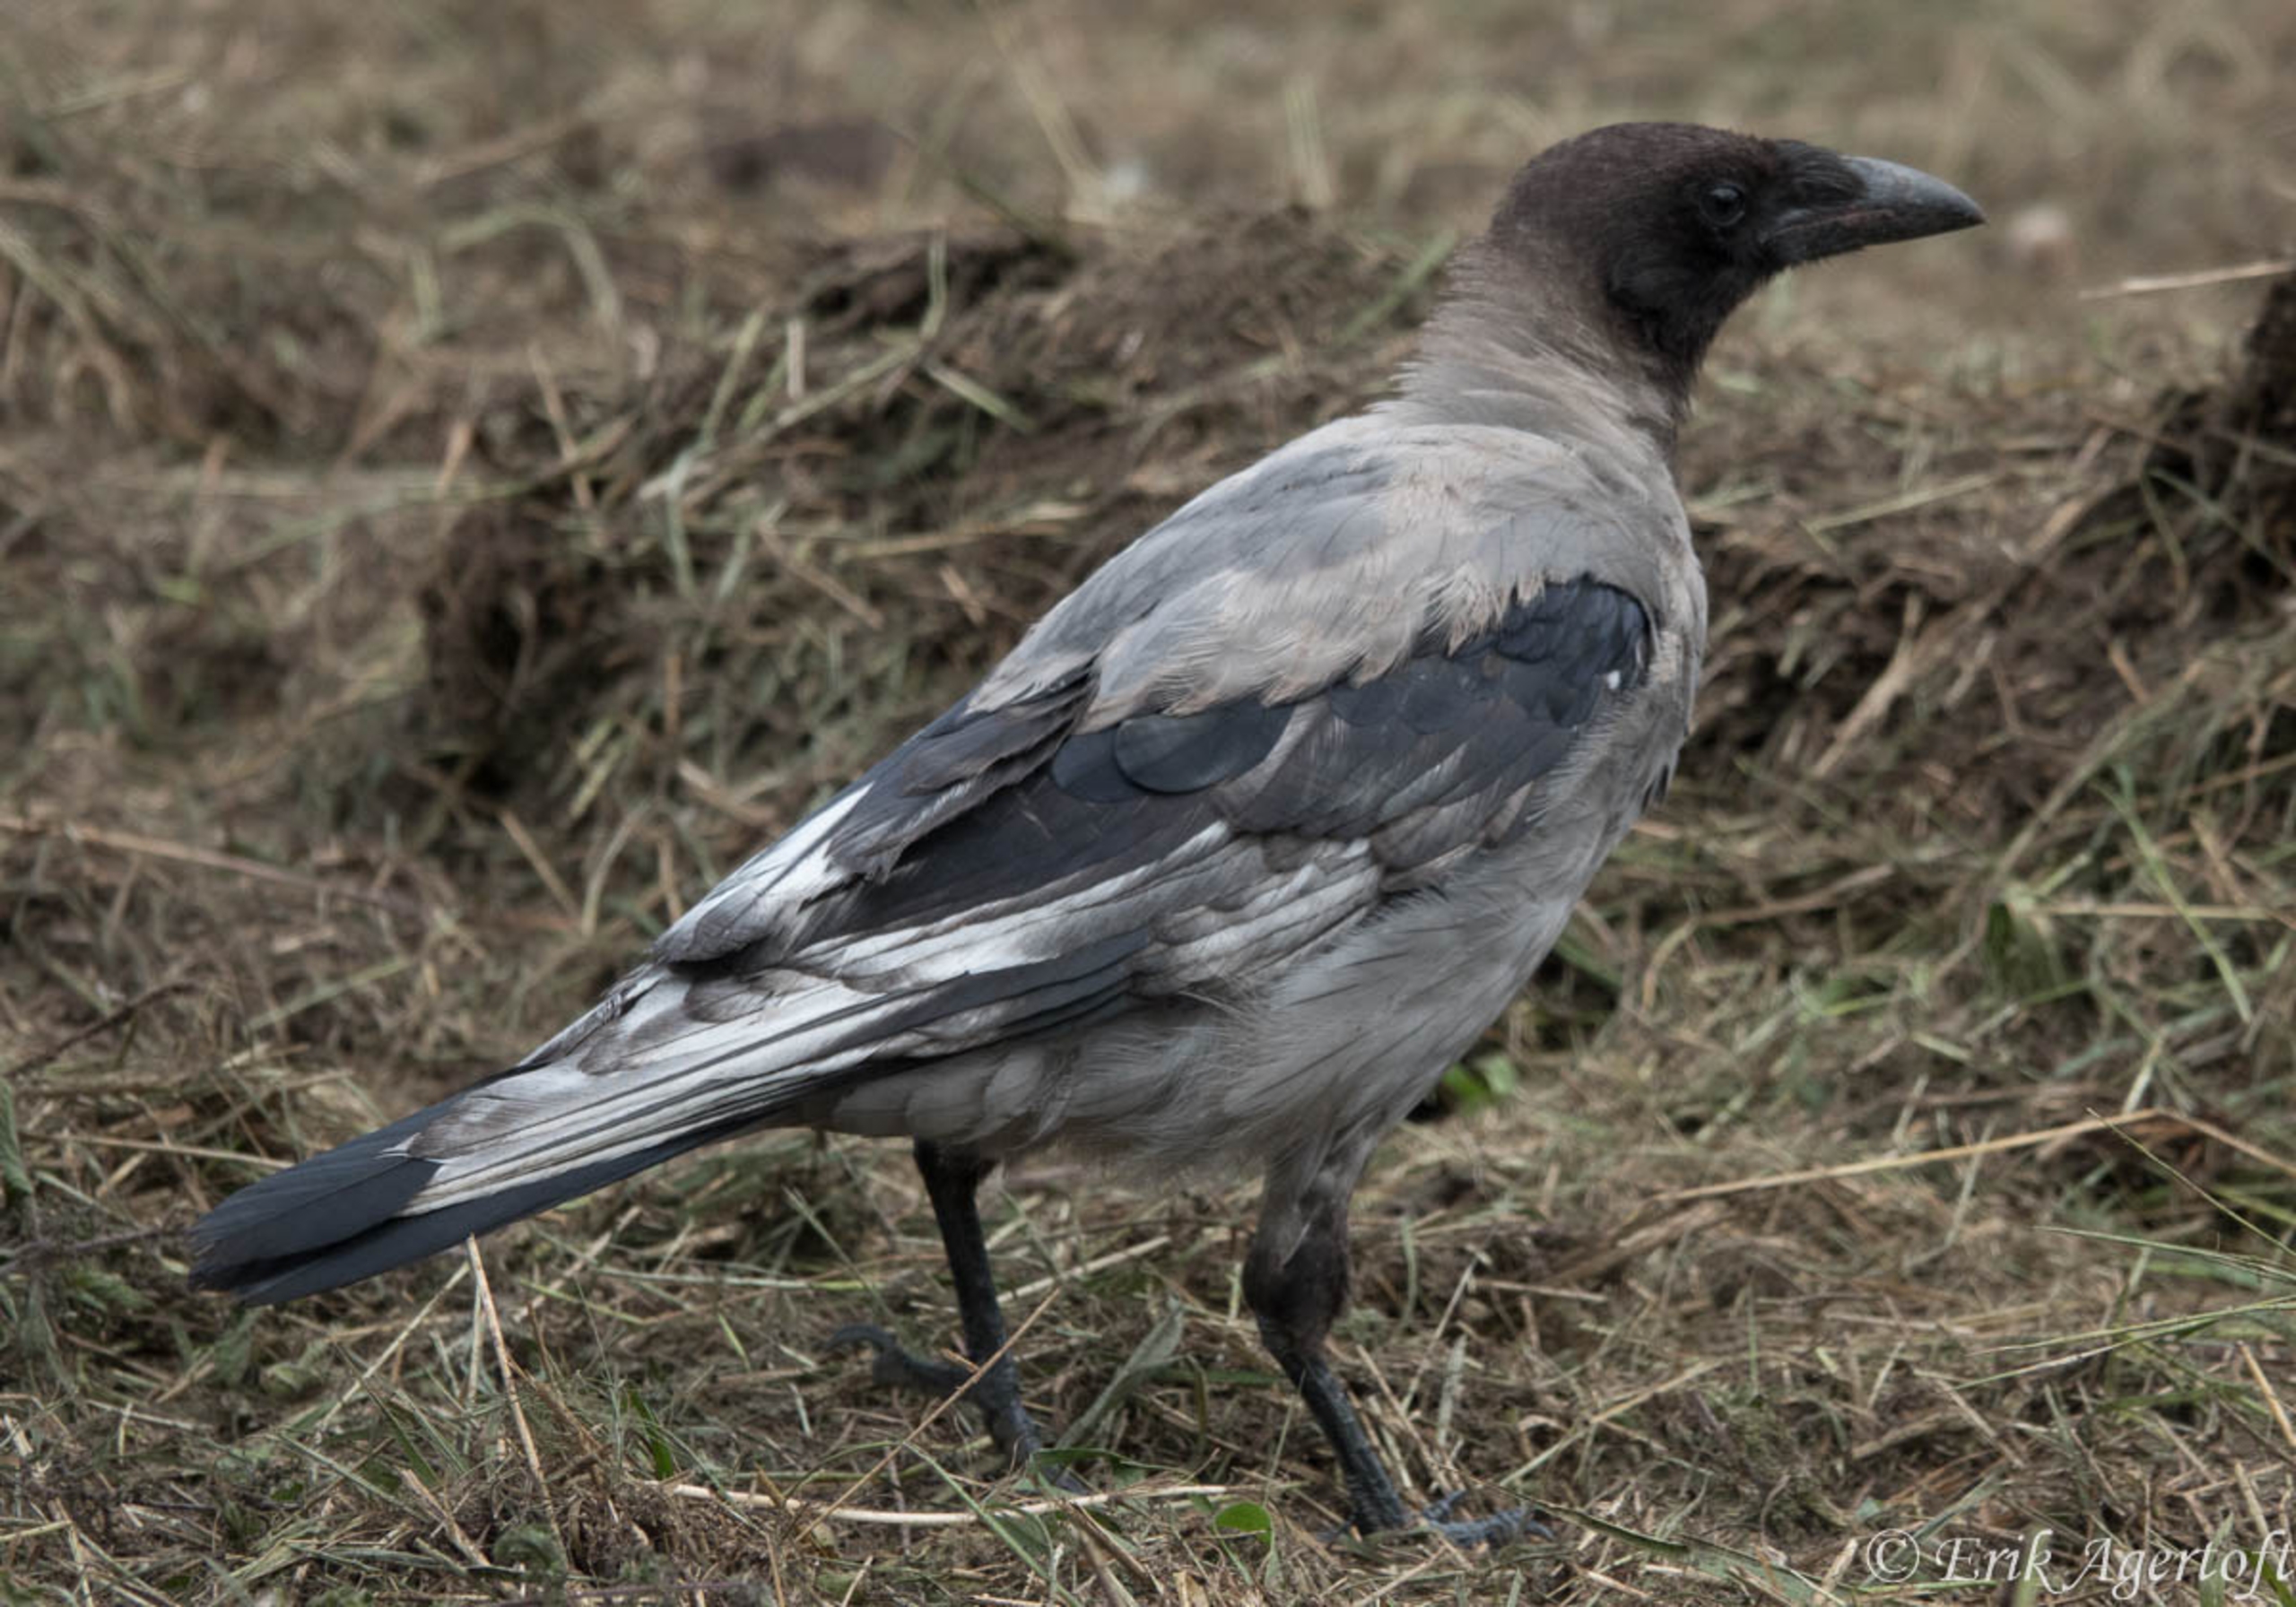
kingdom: Animalia
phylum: Chordata
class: Aves
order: Passeriformes
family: Corvidae
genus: Corvus
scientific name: Corvus cornix
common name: Gråkrage
